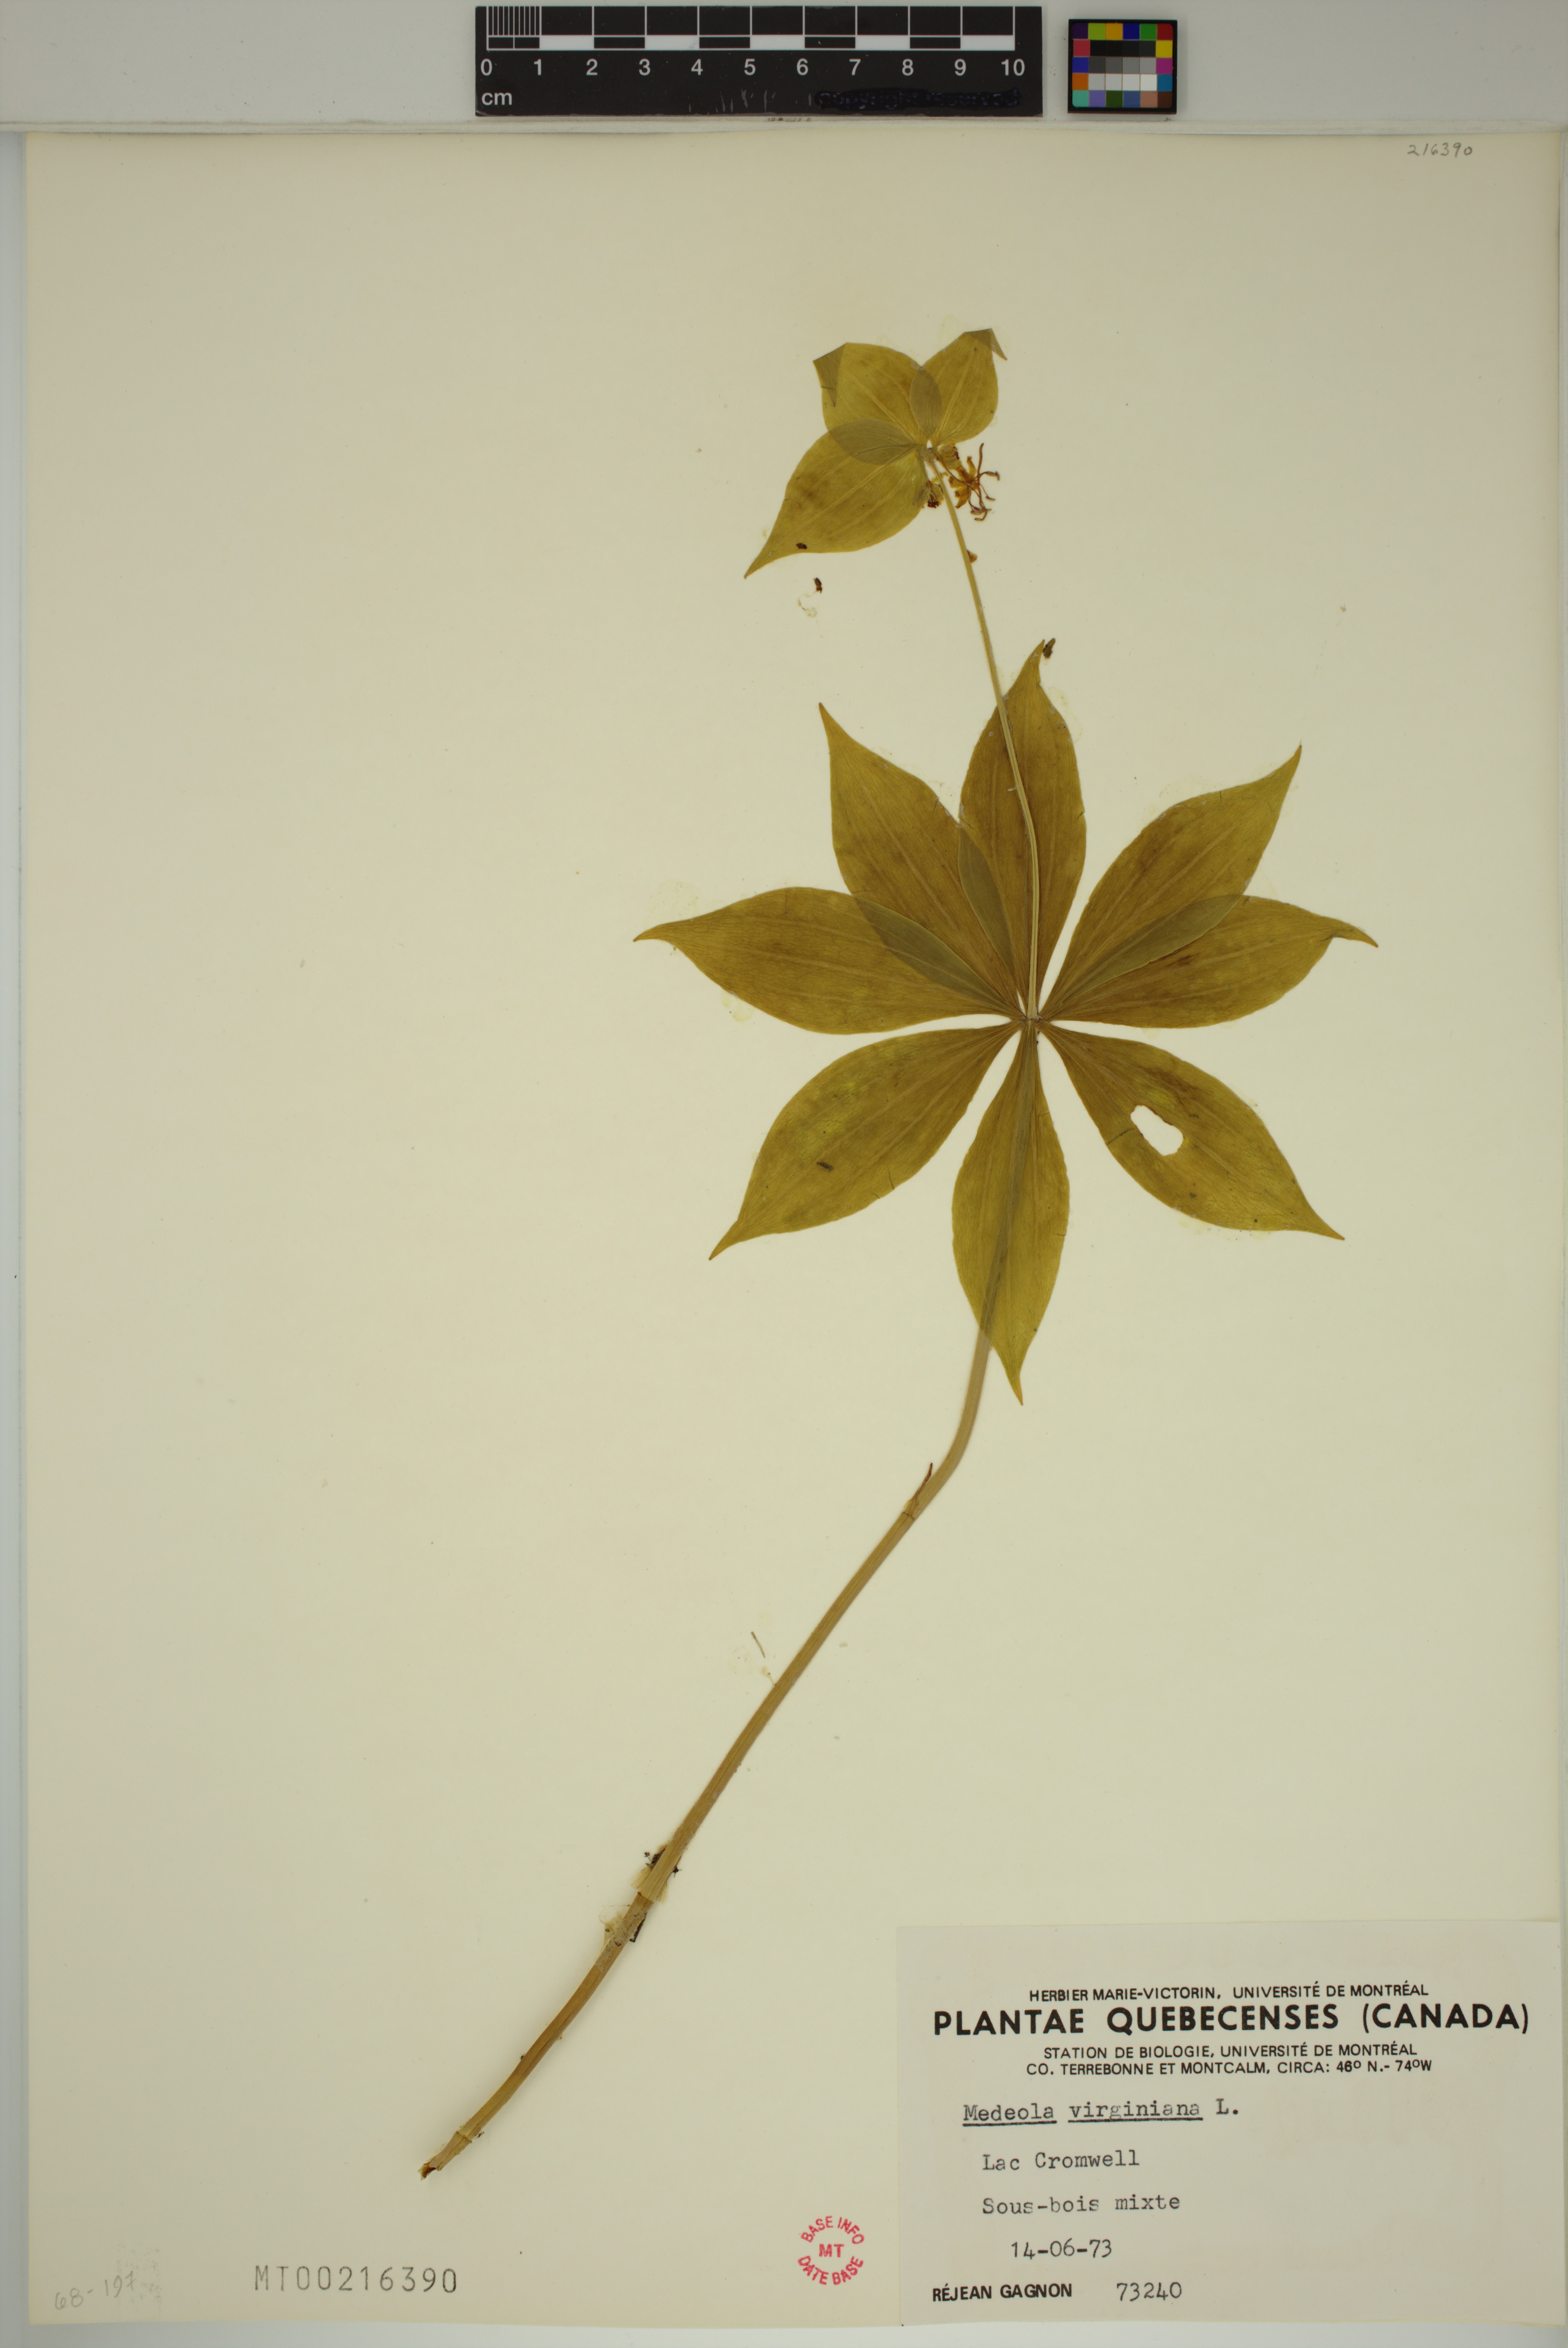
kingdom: Plantae
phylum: Tracheophyta
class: Liliopsida
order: Liliales
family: Liliaceae
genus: Medeola
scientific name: Medeola virginiana
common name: Indian cucumber-root
